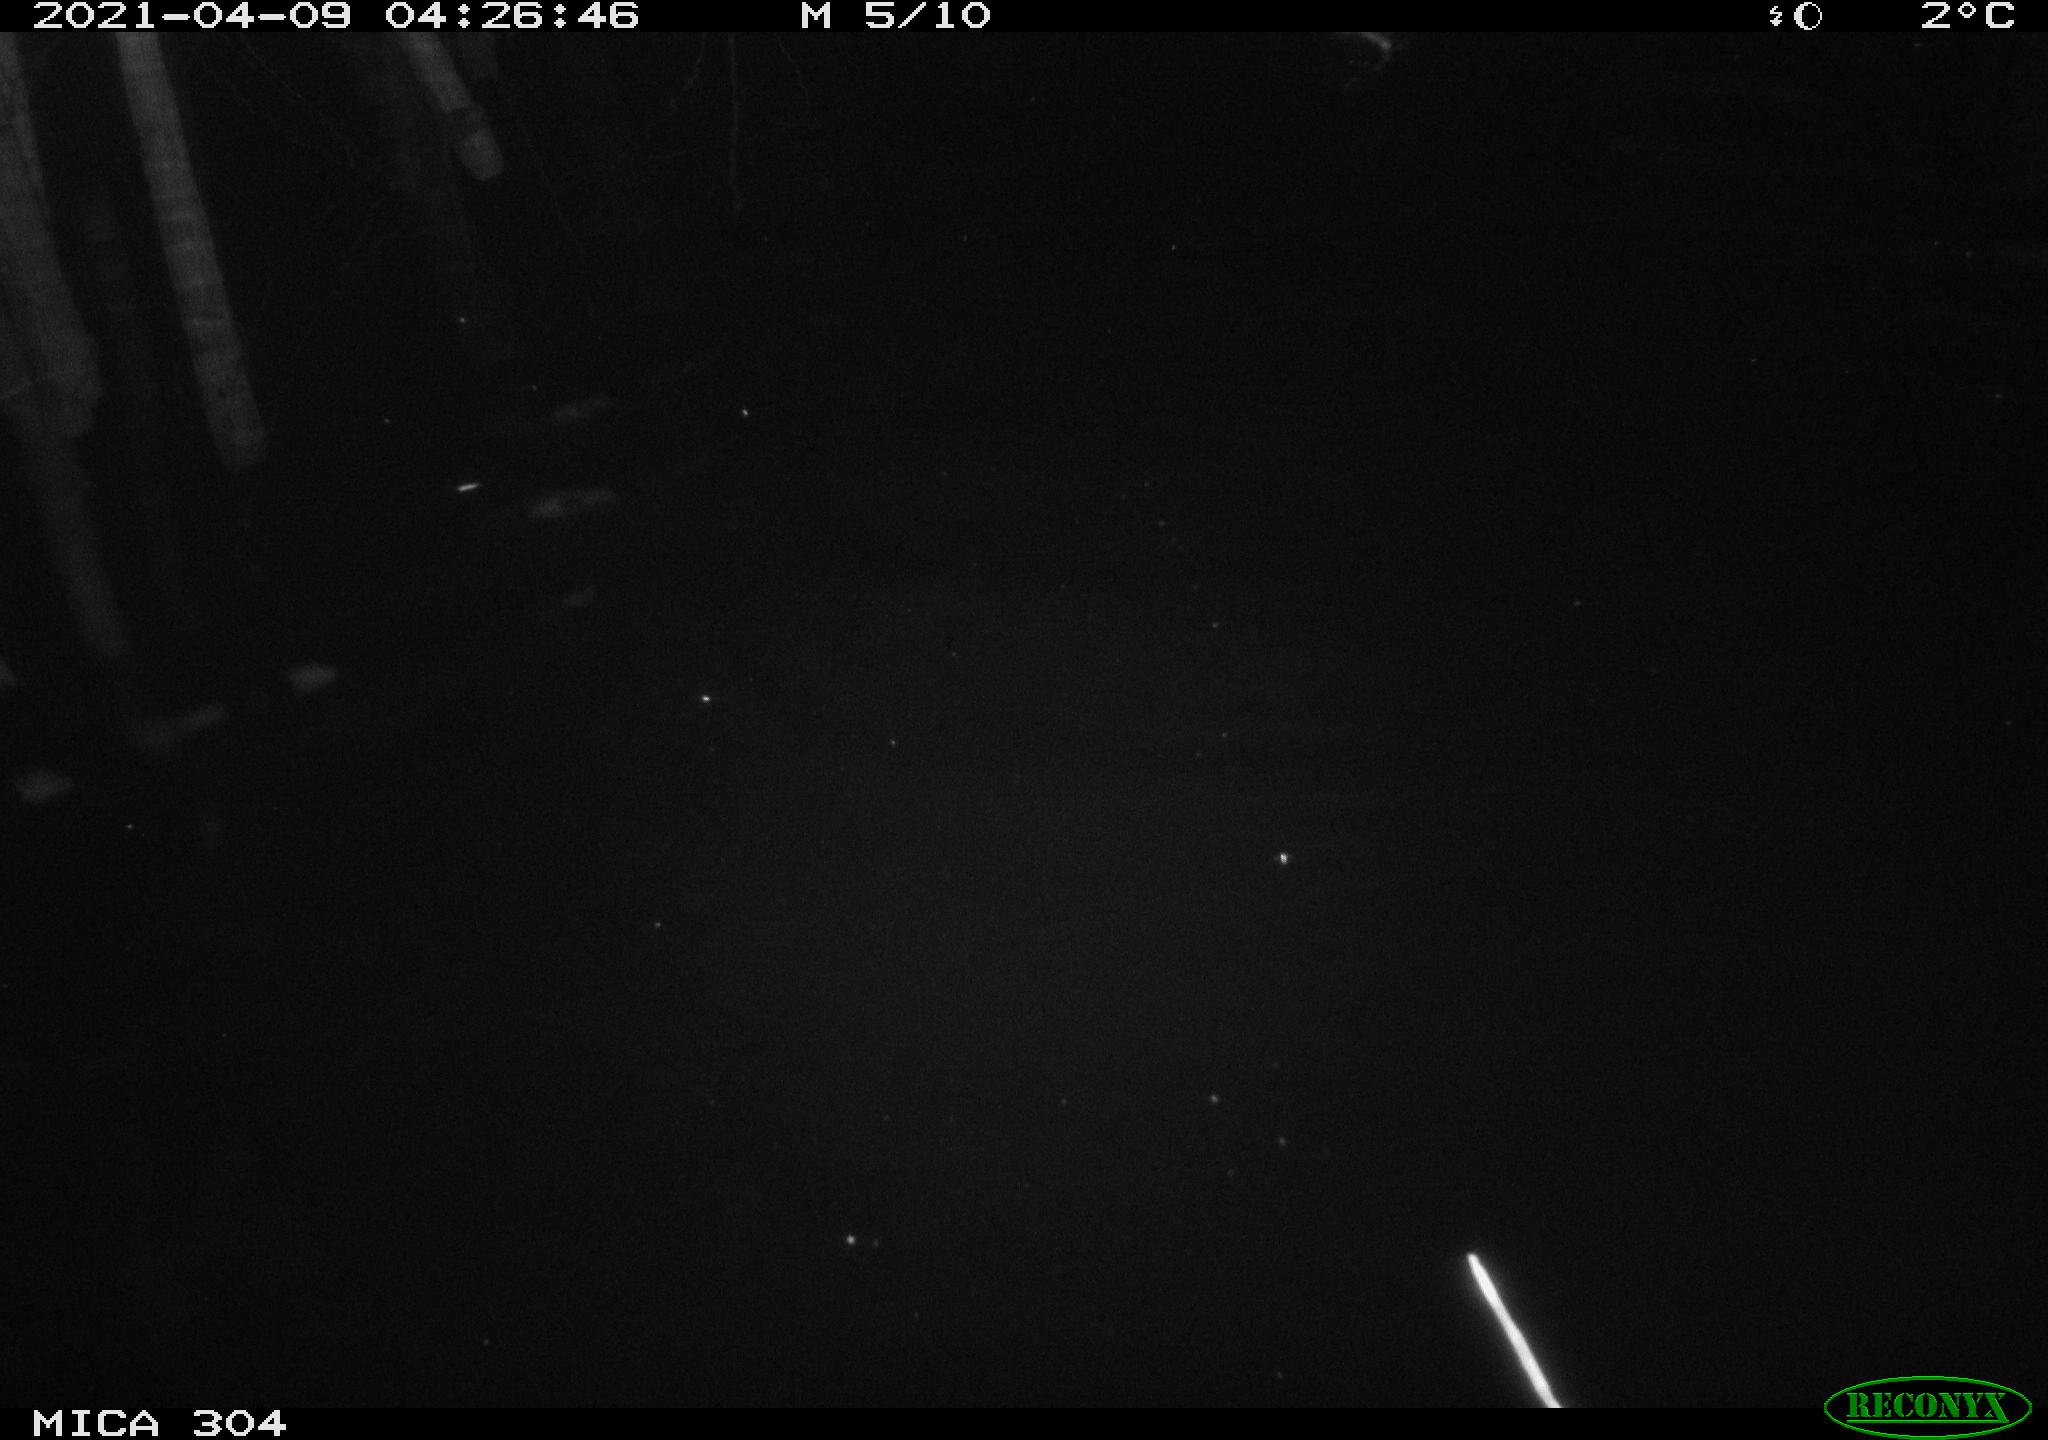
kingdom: Animalia
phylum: Chordata
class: Mammalia
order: Rodentia
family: Cricetidae
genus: Ondatra
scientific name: Ondatra zibethicus
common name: Muskrat
